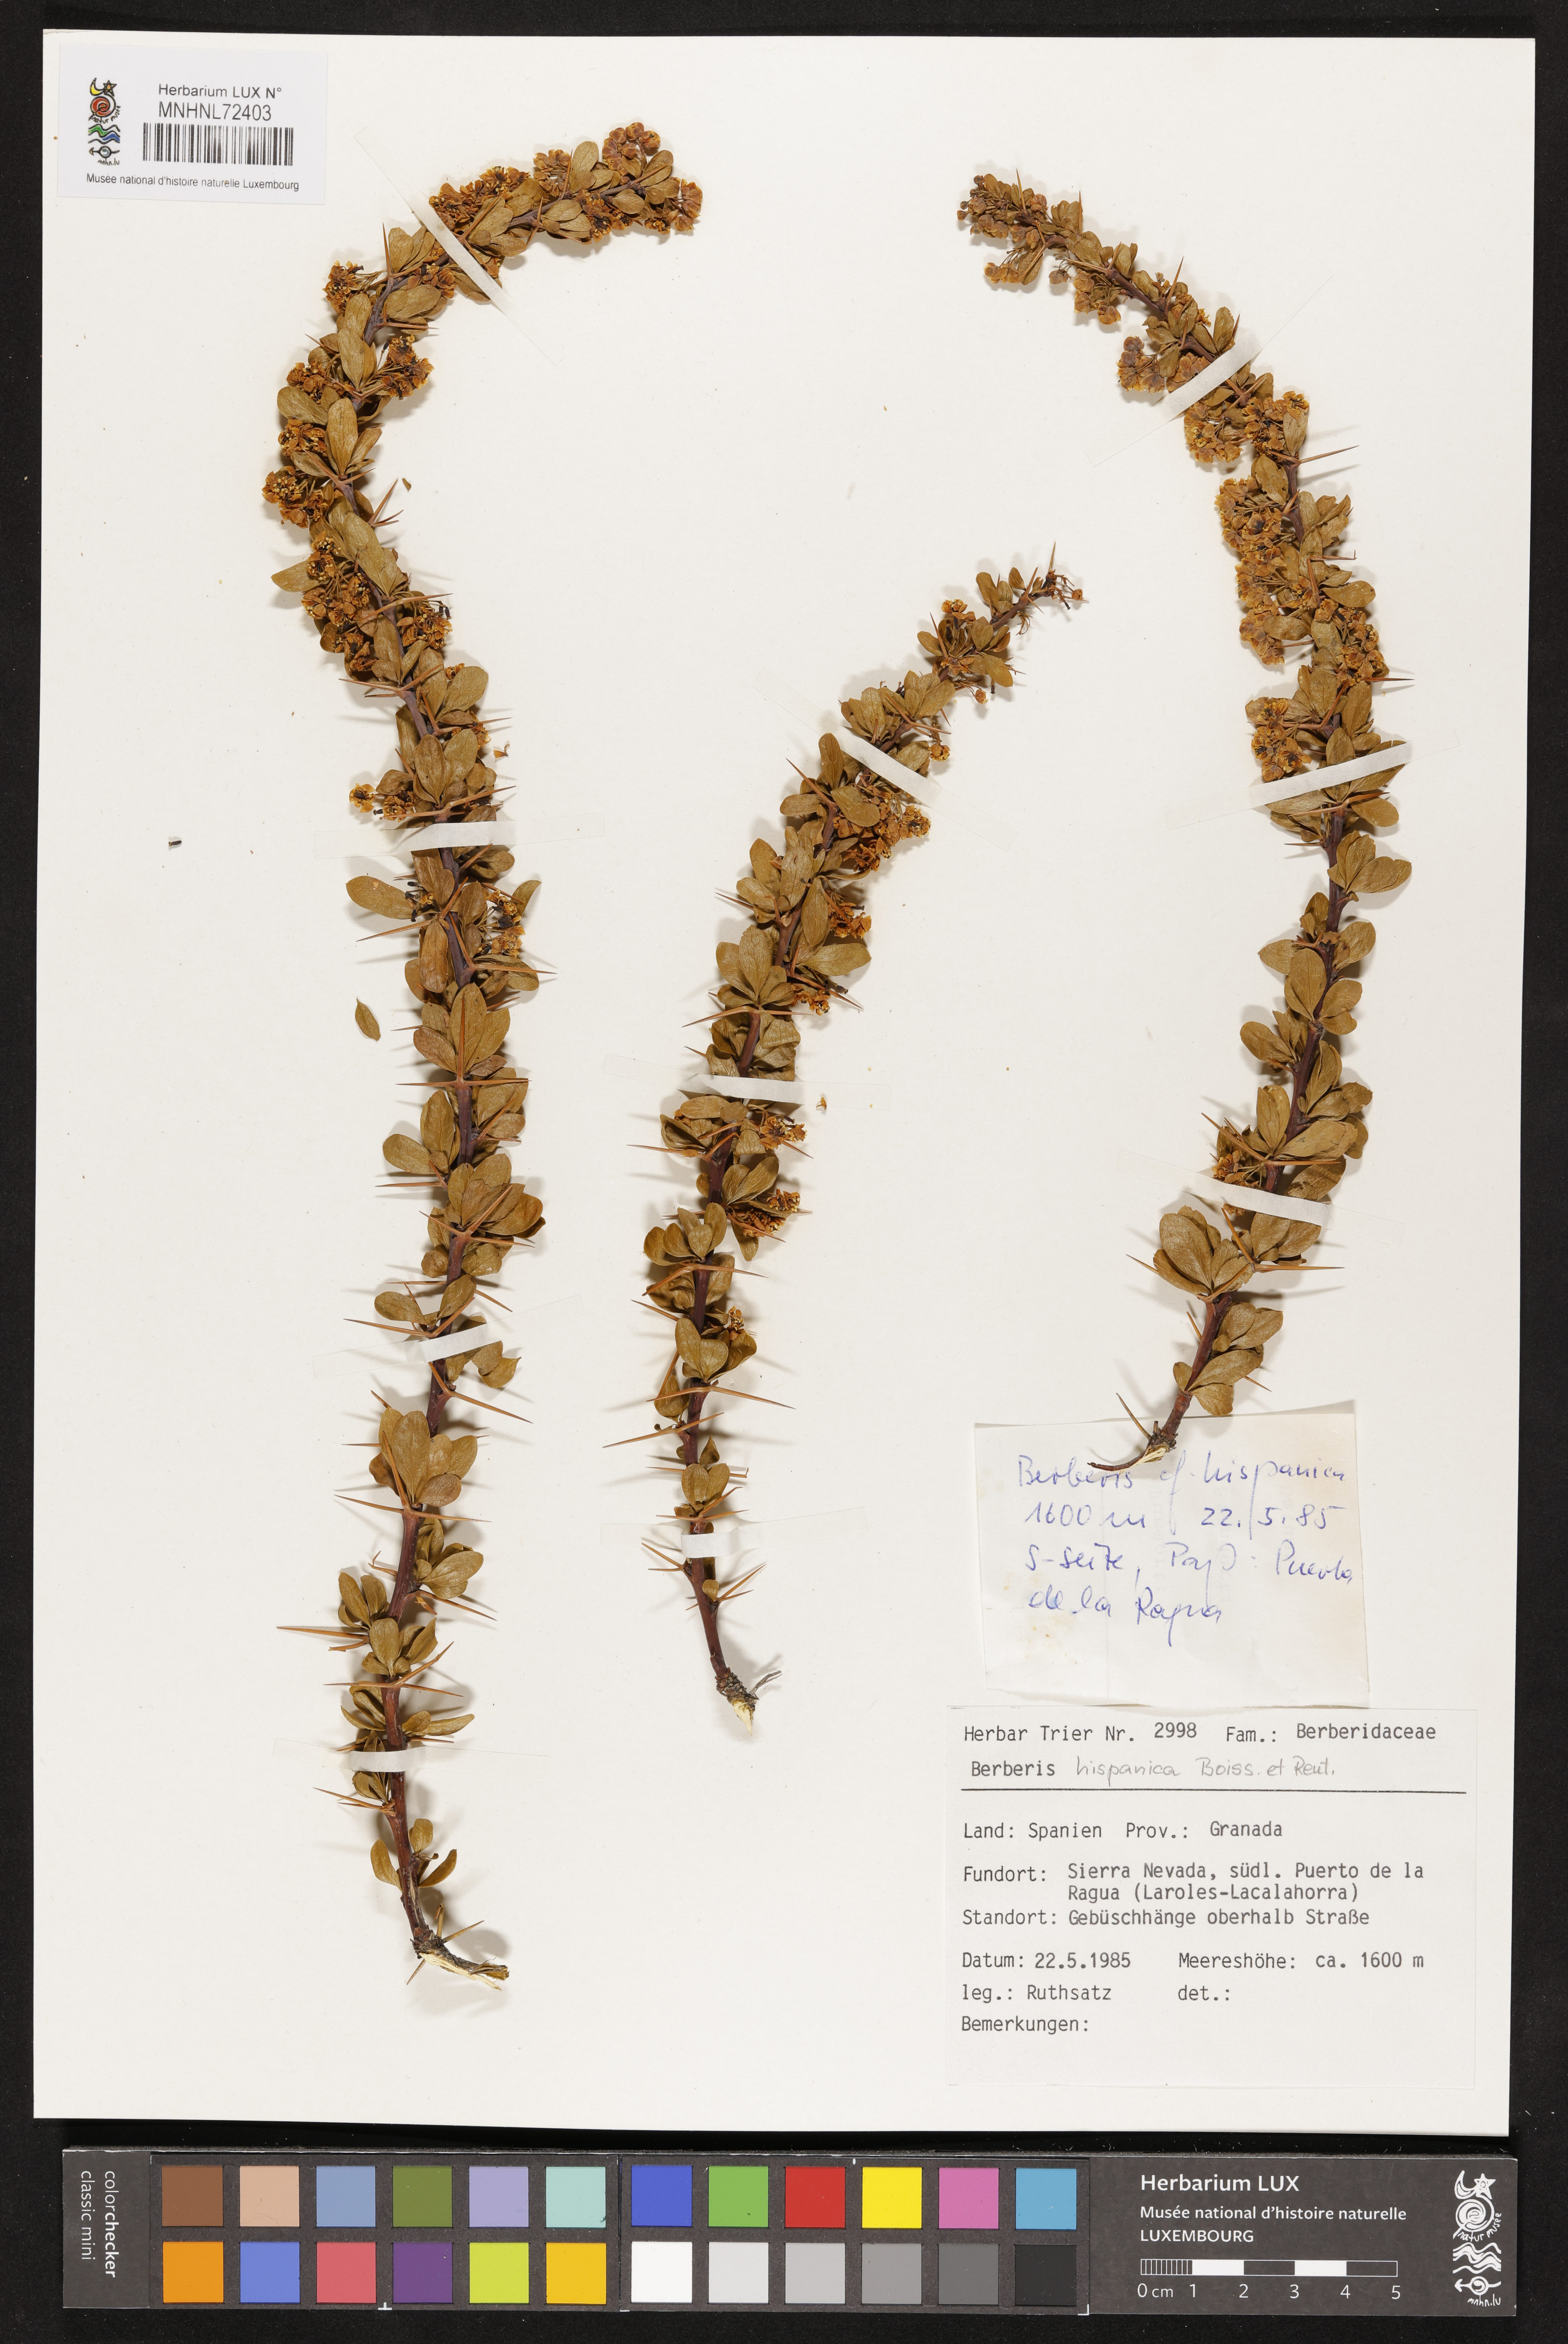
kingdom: Plantae
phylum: Tracheophyta
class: Magnoliopsida
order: Ranunculales
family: Berberidaceae
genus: Berberis
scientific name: Berberis hispanica
